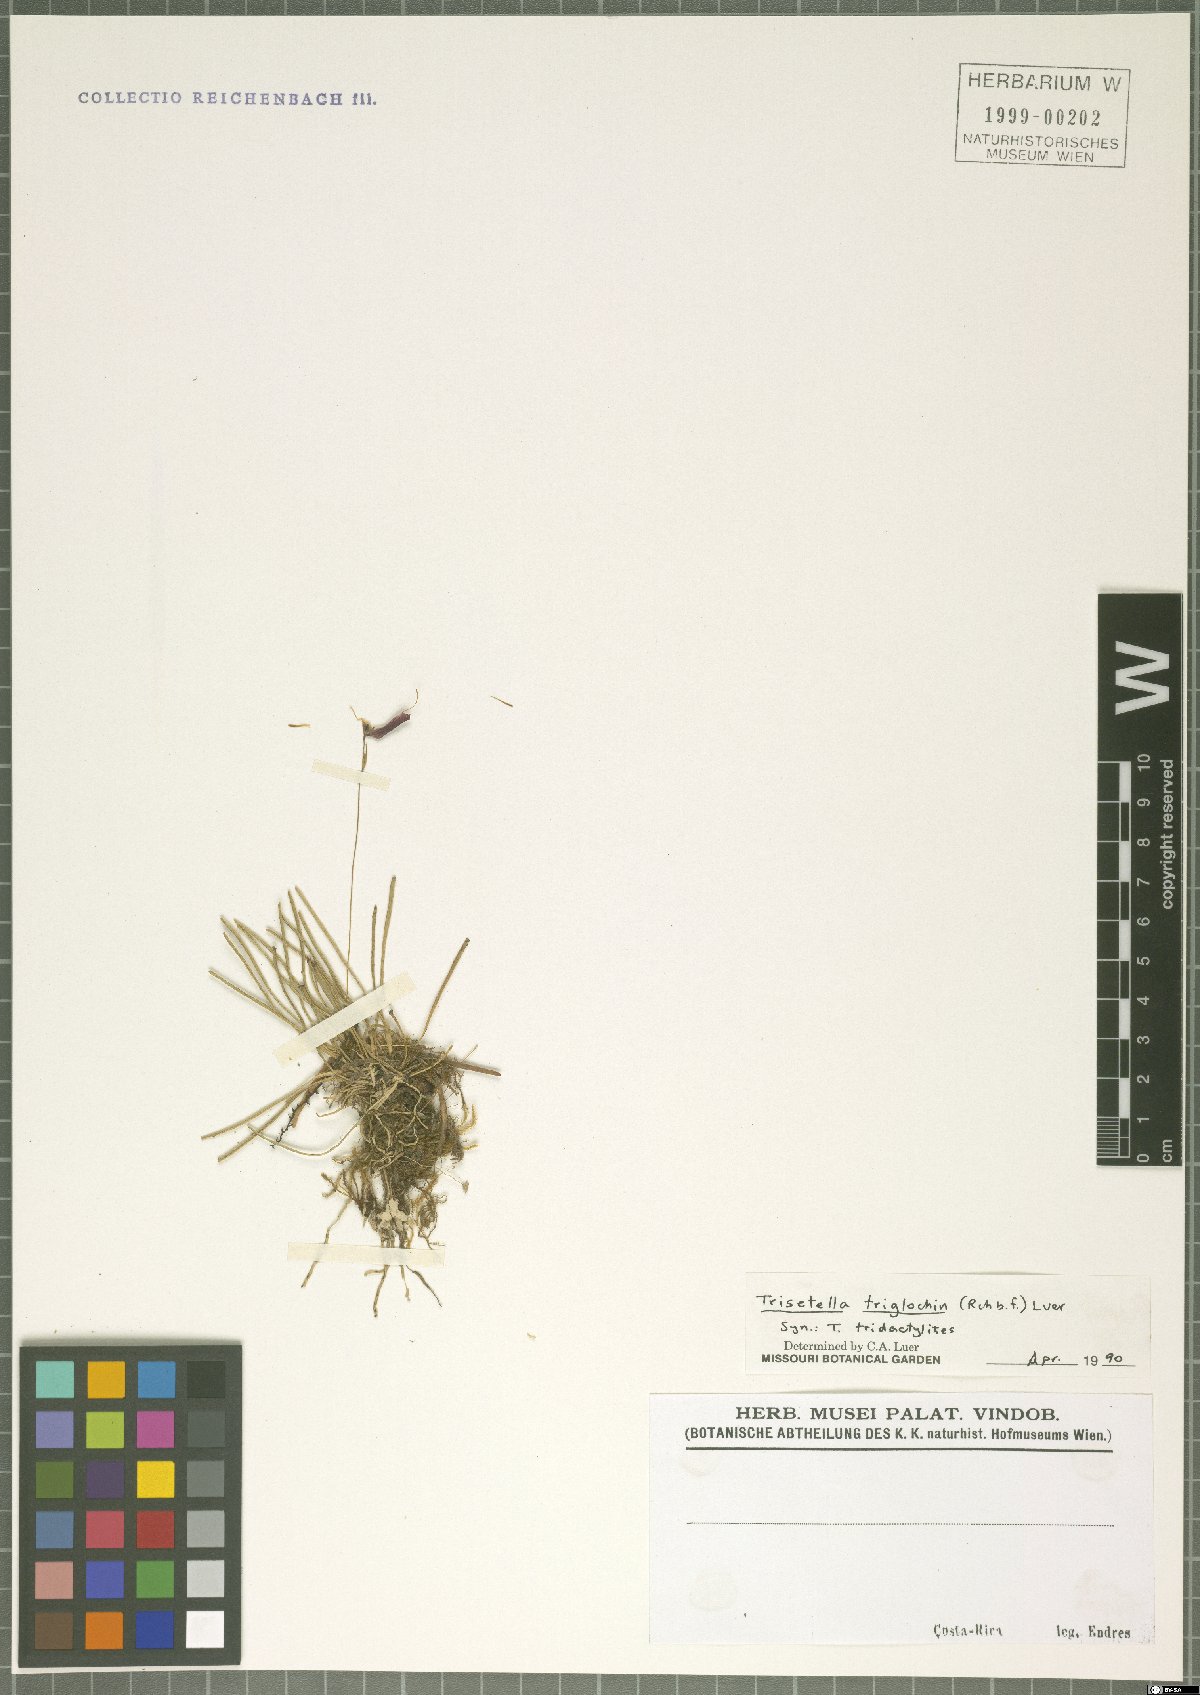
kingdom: Plantae
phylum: Tracheophyta
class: Liliopsida
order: Asparagales
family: Orchidaceae
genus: Trisetella
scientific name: Trisetella triglochin
